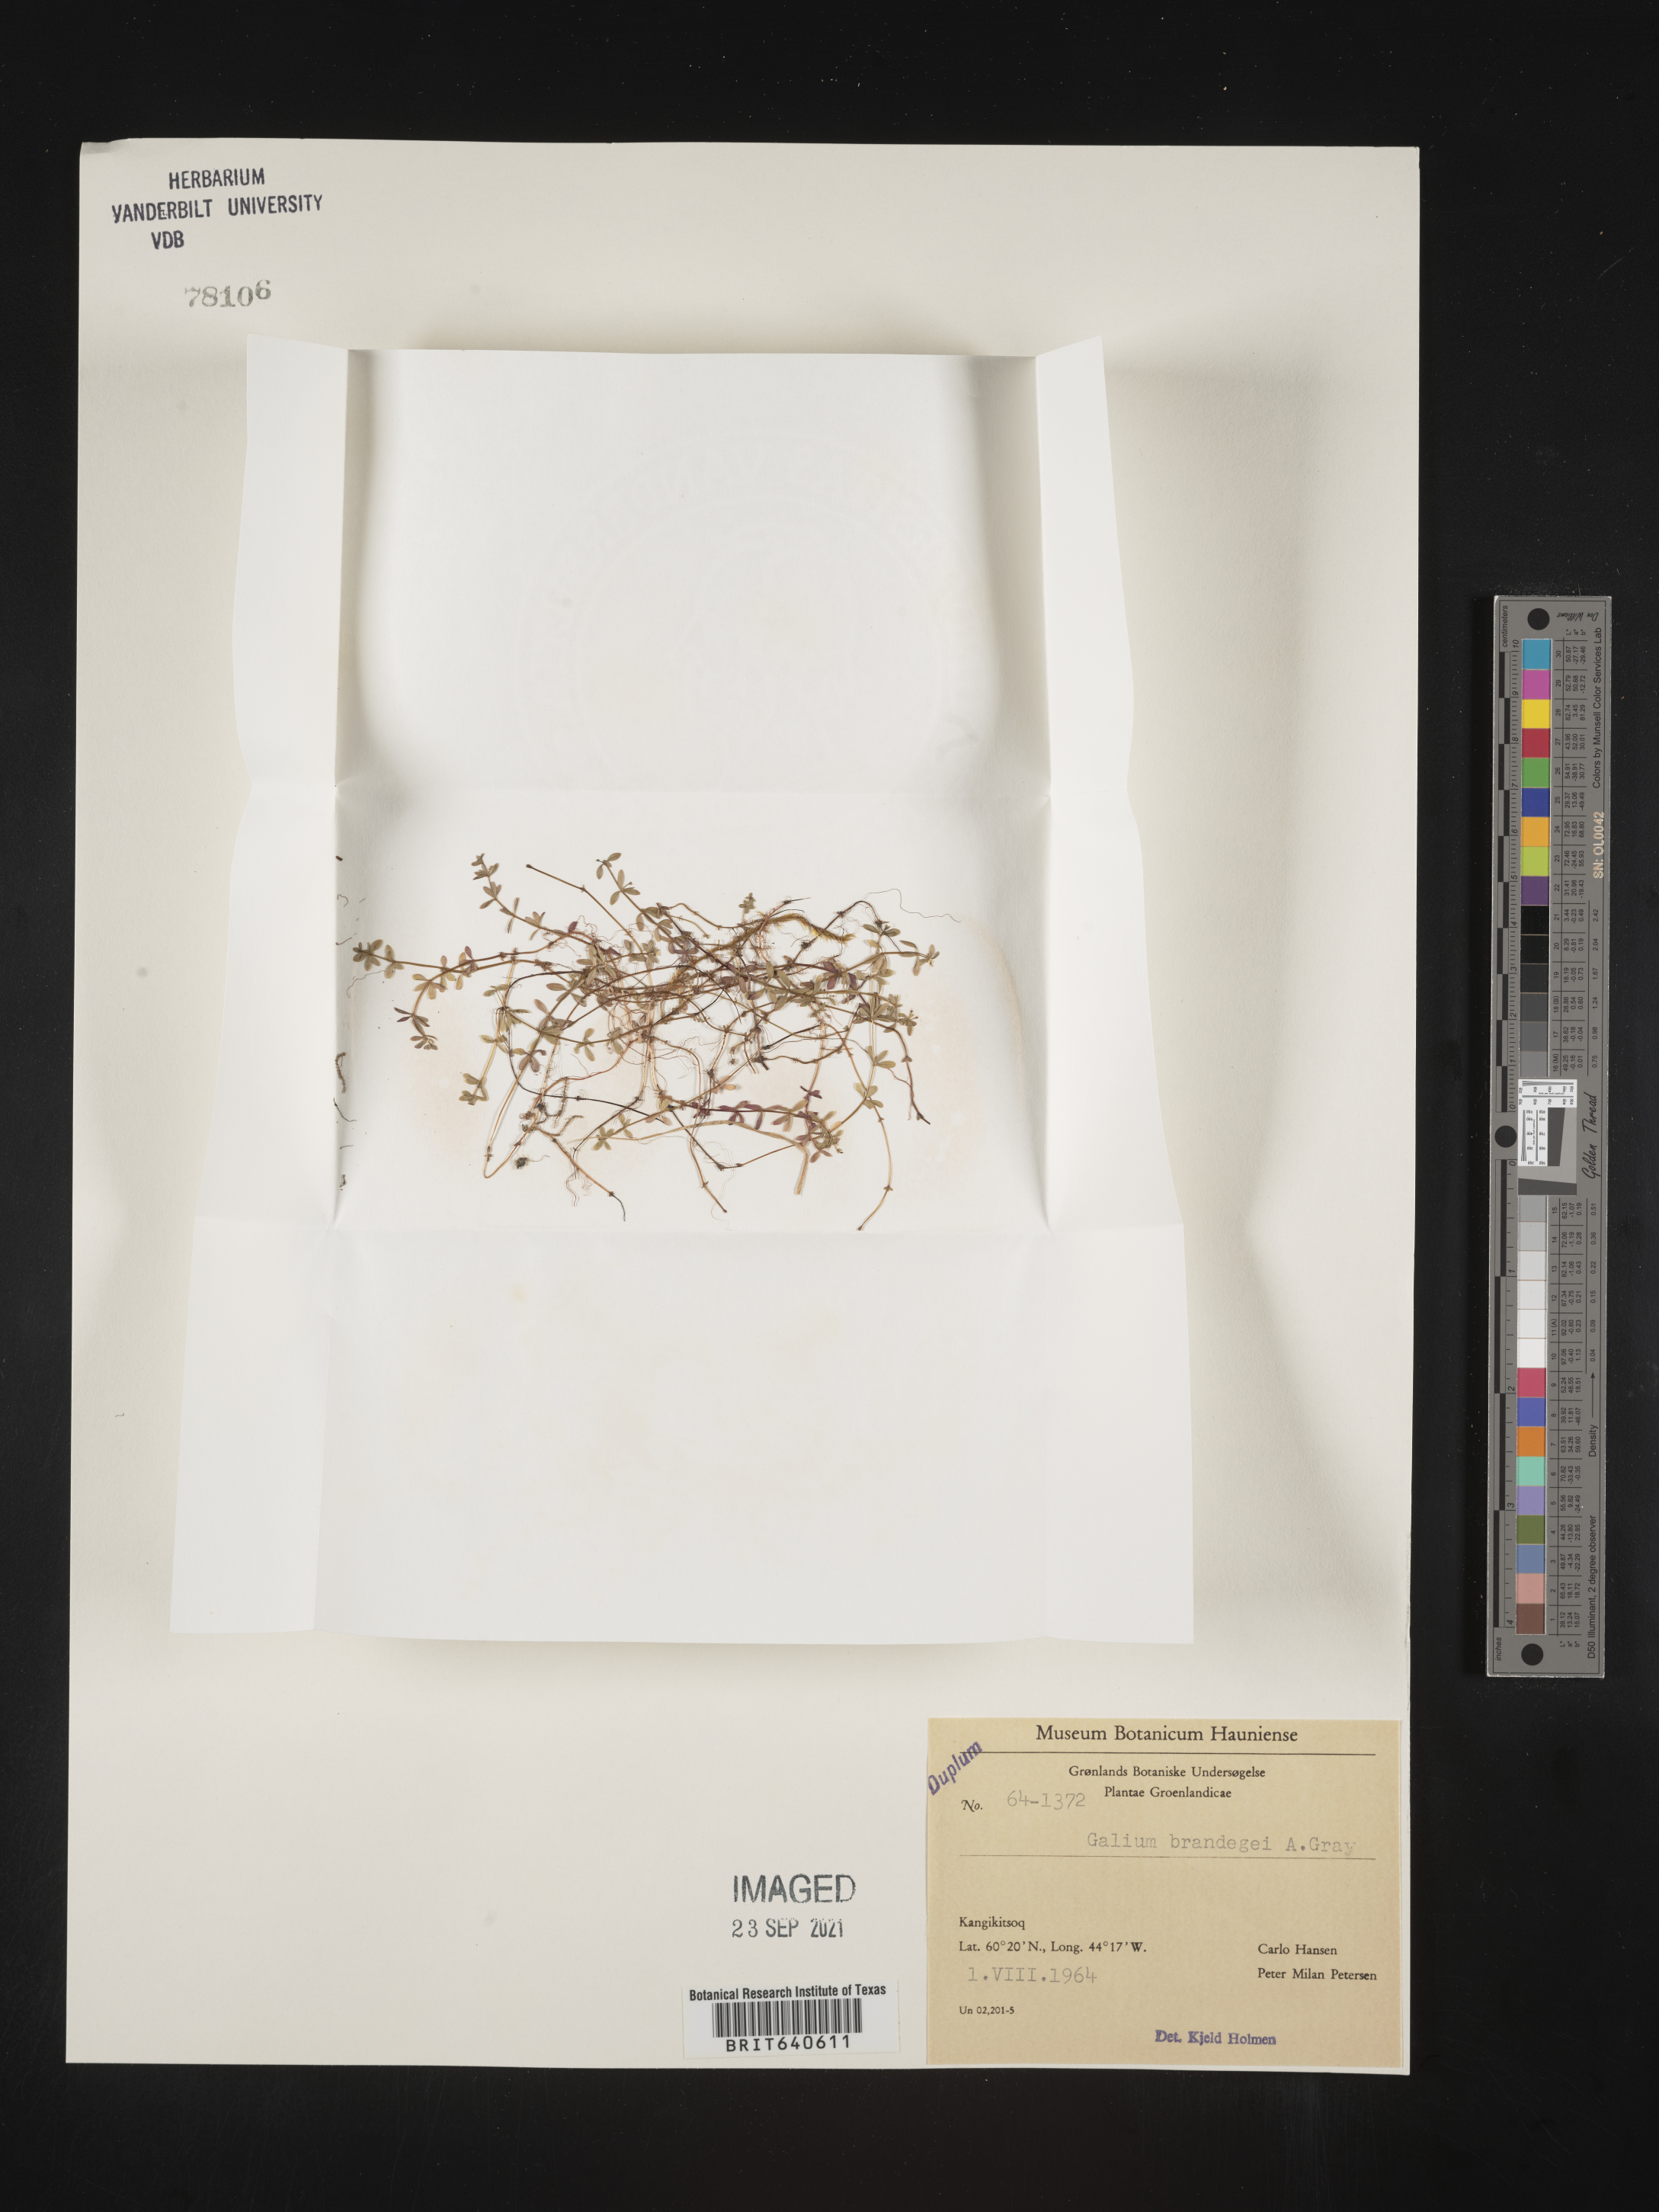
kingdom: Plantae
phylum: Tracheophyta
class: Magnoliopsida
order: Gentianales
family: Rubiaceae
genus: Galium
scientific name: Galium
